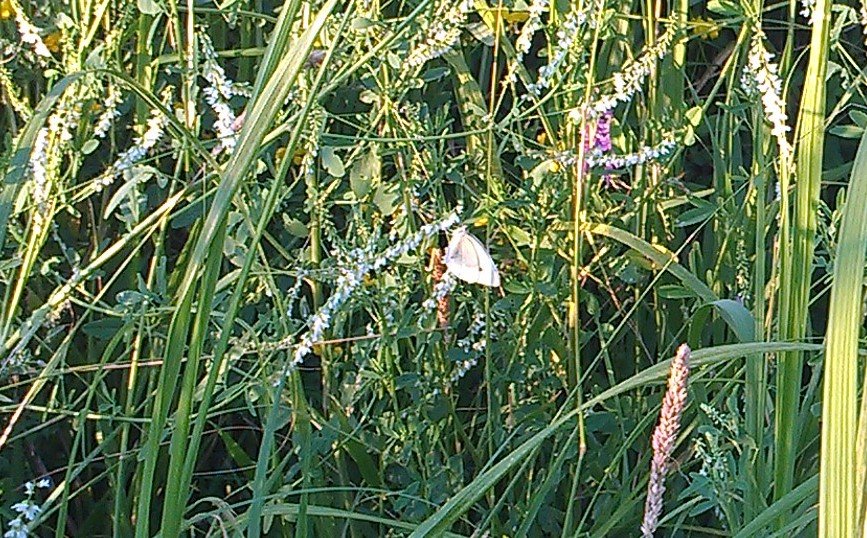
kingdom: Animalia
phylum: Arthropoda
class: Insecta
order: Lepidoptera
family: Pieridae
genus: Pieris
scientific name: Pieris rapae
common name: Cabbage White
